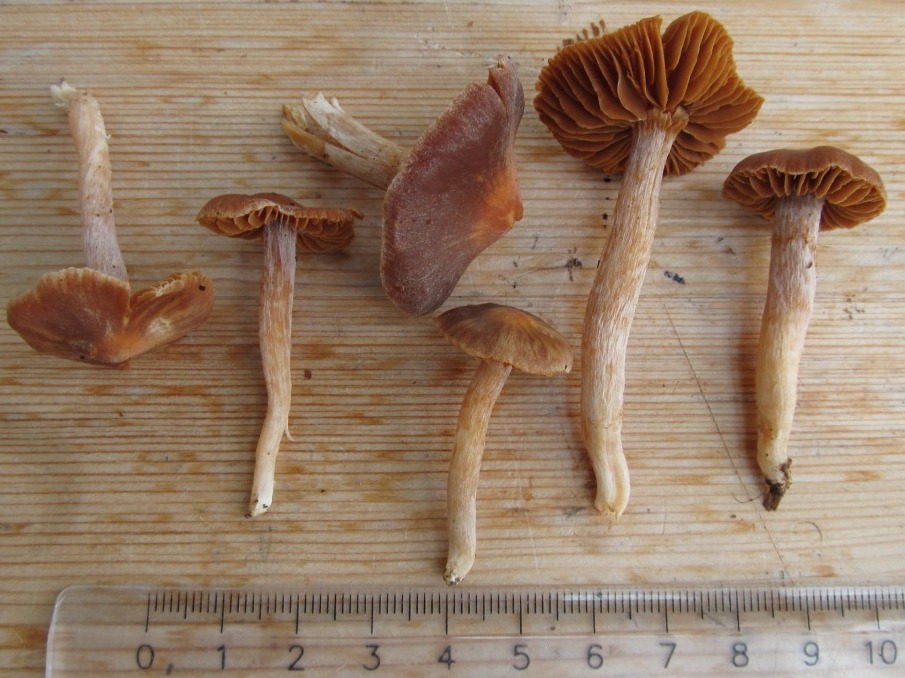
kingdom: Fungi
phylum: Basidiomycota
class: Agaricomycetes
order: Agaricales
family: Cortinariaceae
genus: Cortinarius
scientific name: Cortinarius
